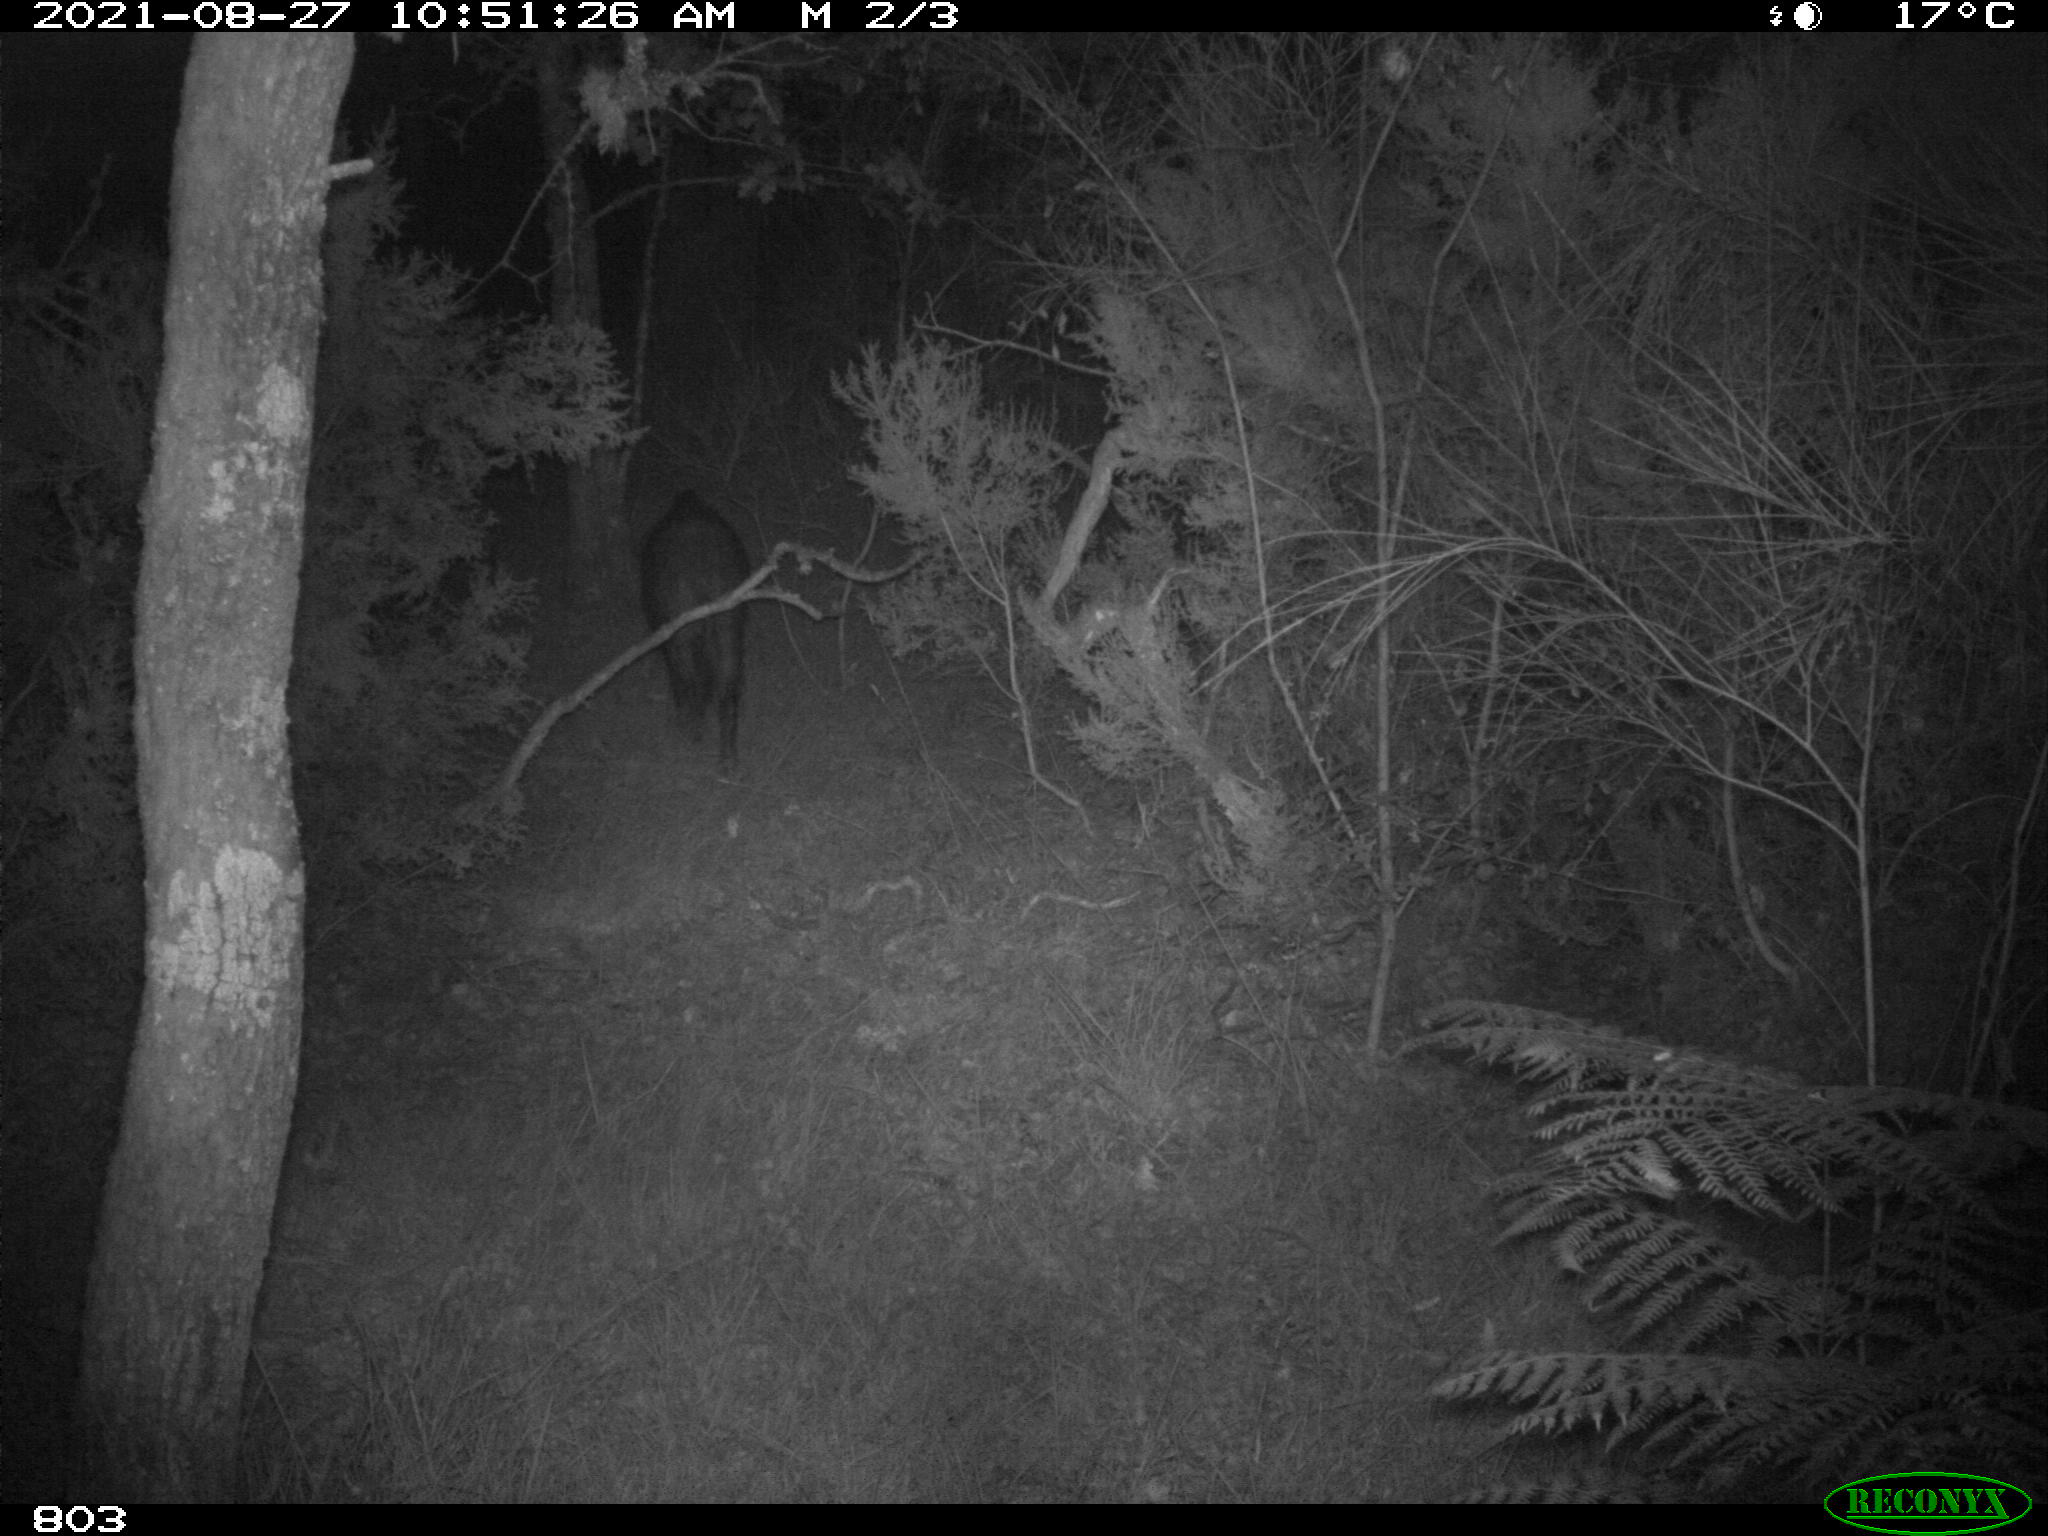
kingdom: Animalia
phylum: Chordata
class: Mammalia
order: Artiodactyla
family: Suidae
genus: Sus
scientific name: Sus scrofa
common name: Wild boar
